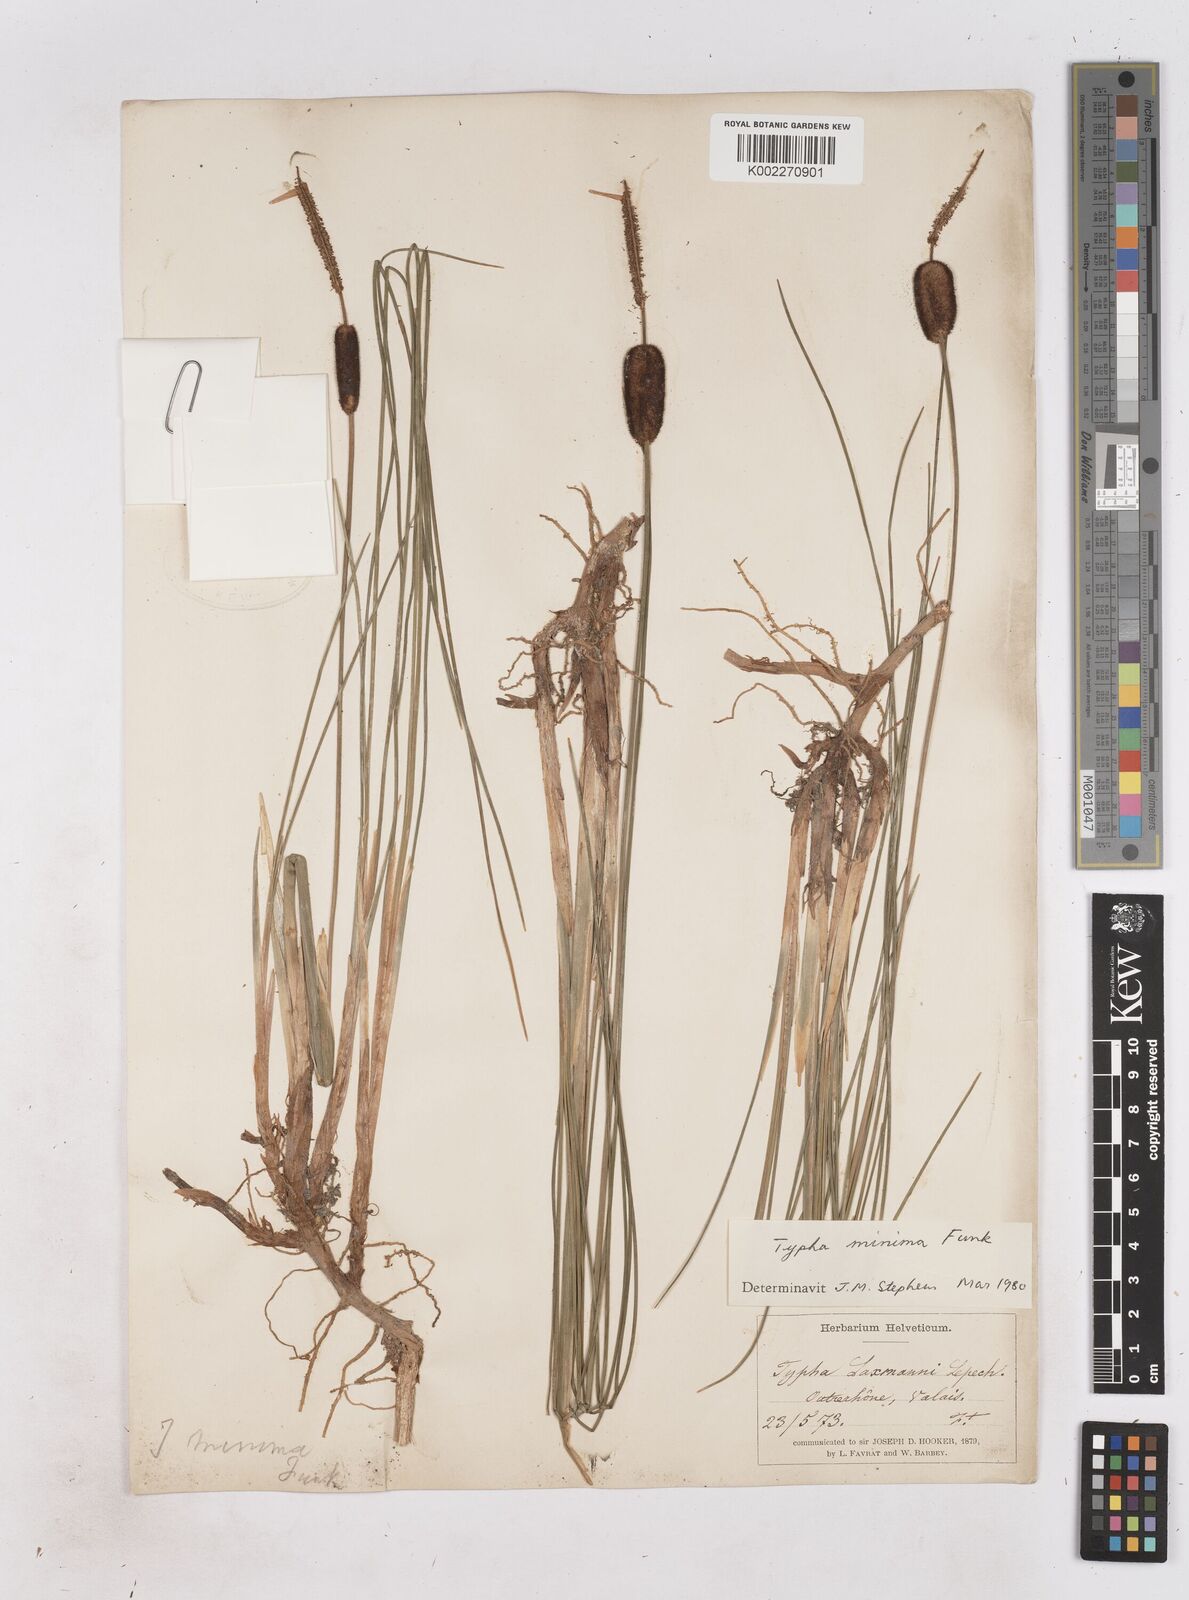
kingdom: Plantae
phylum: Tracheophyta
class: Liliopsida
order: Poales
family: Typhaceae
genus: Typha
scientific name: Typha minima
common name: Dwarf bulrush
